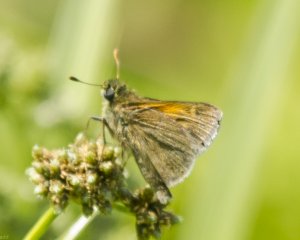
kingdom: Animalia
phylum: Arthropoda
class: Insecta
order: Lepidoptera
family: Hesperiidae
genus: Polites
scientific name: Polites themistocles
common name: Tawny-edged Skipper
